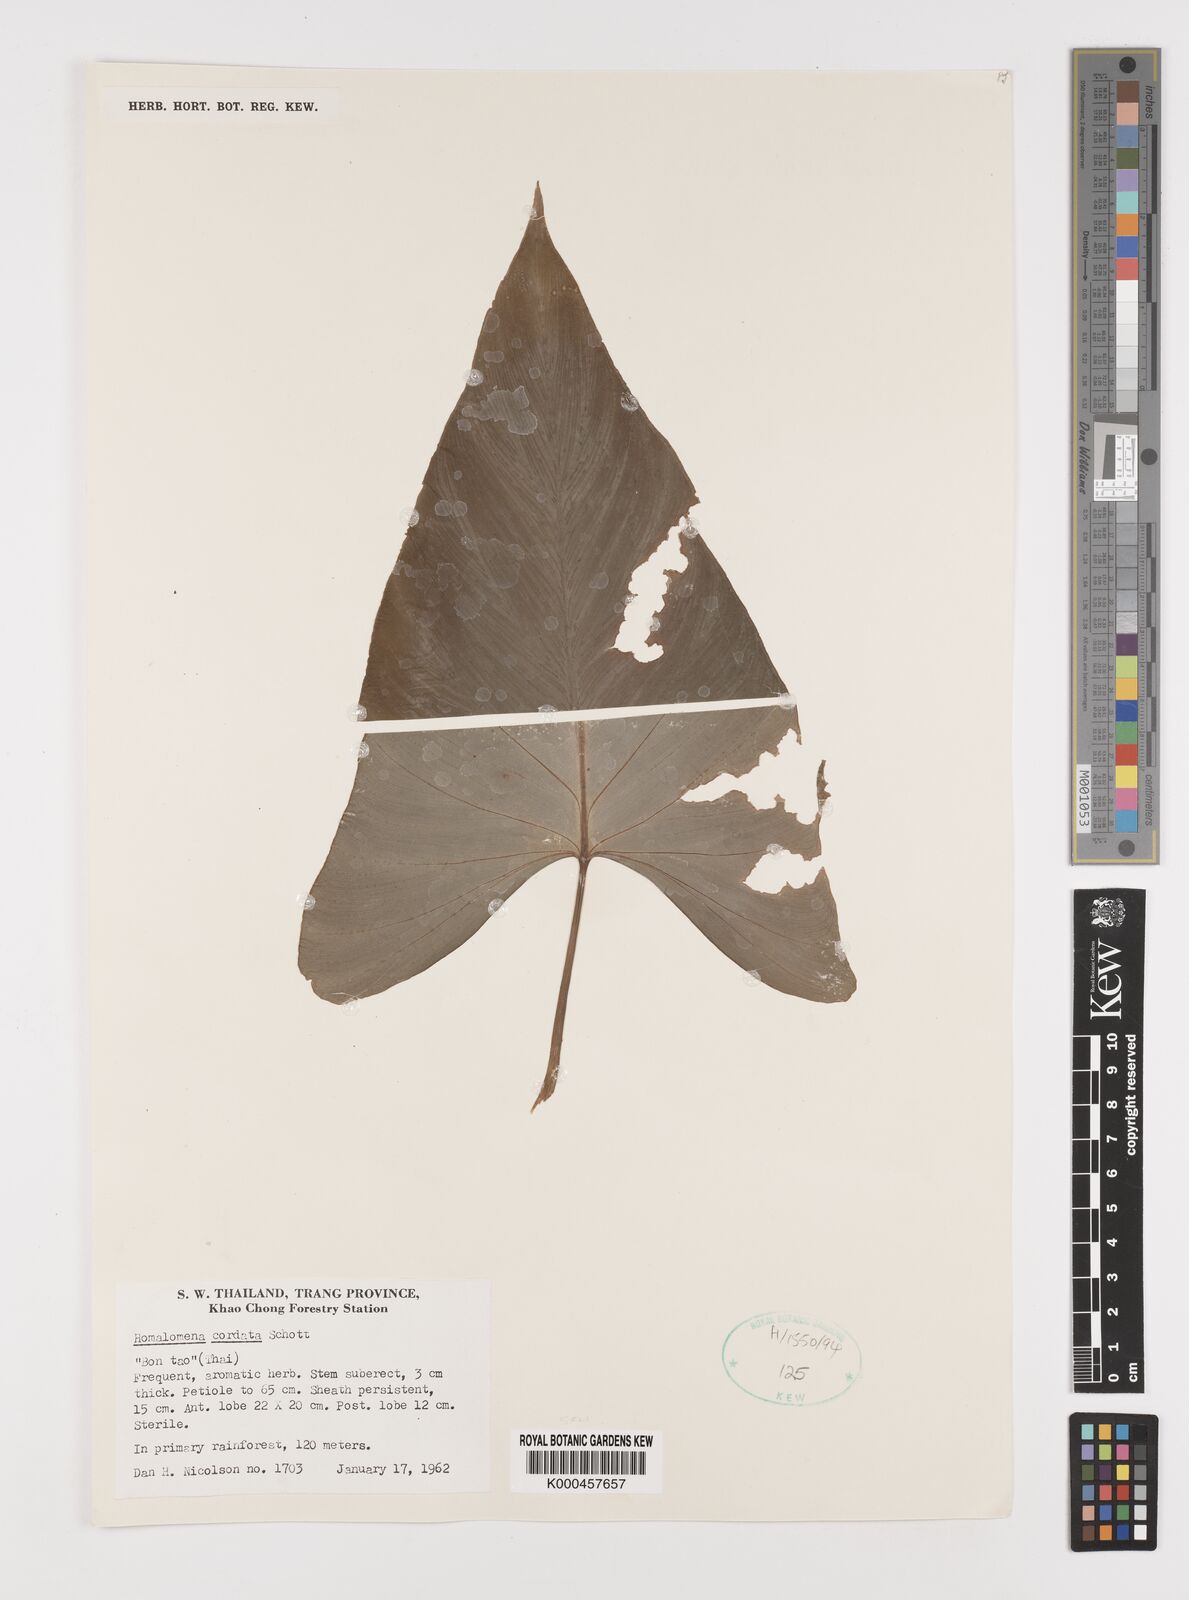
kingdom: Plantae
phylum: Tracheophyta
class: Liliopsida
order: Alismatales
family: Araceae
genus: Homalomena
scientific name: Homalomena cordata
